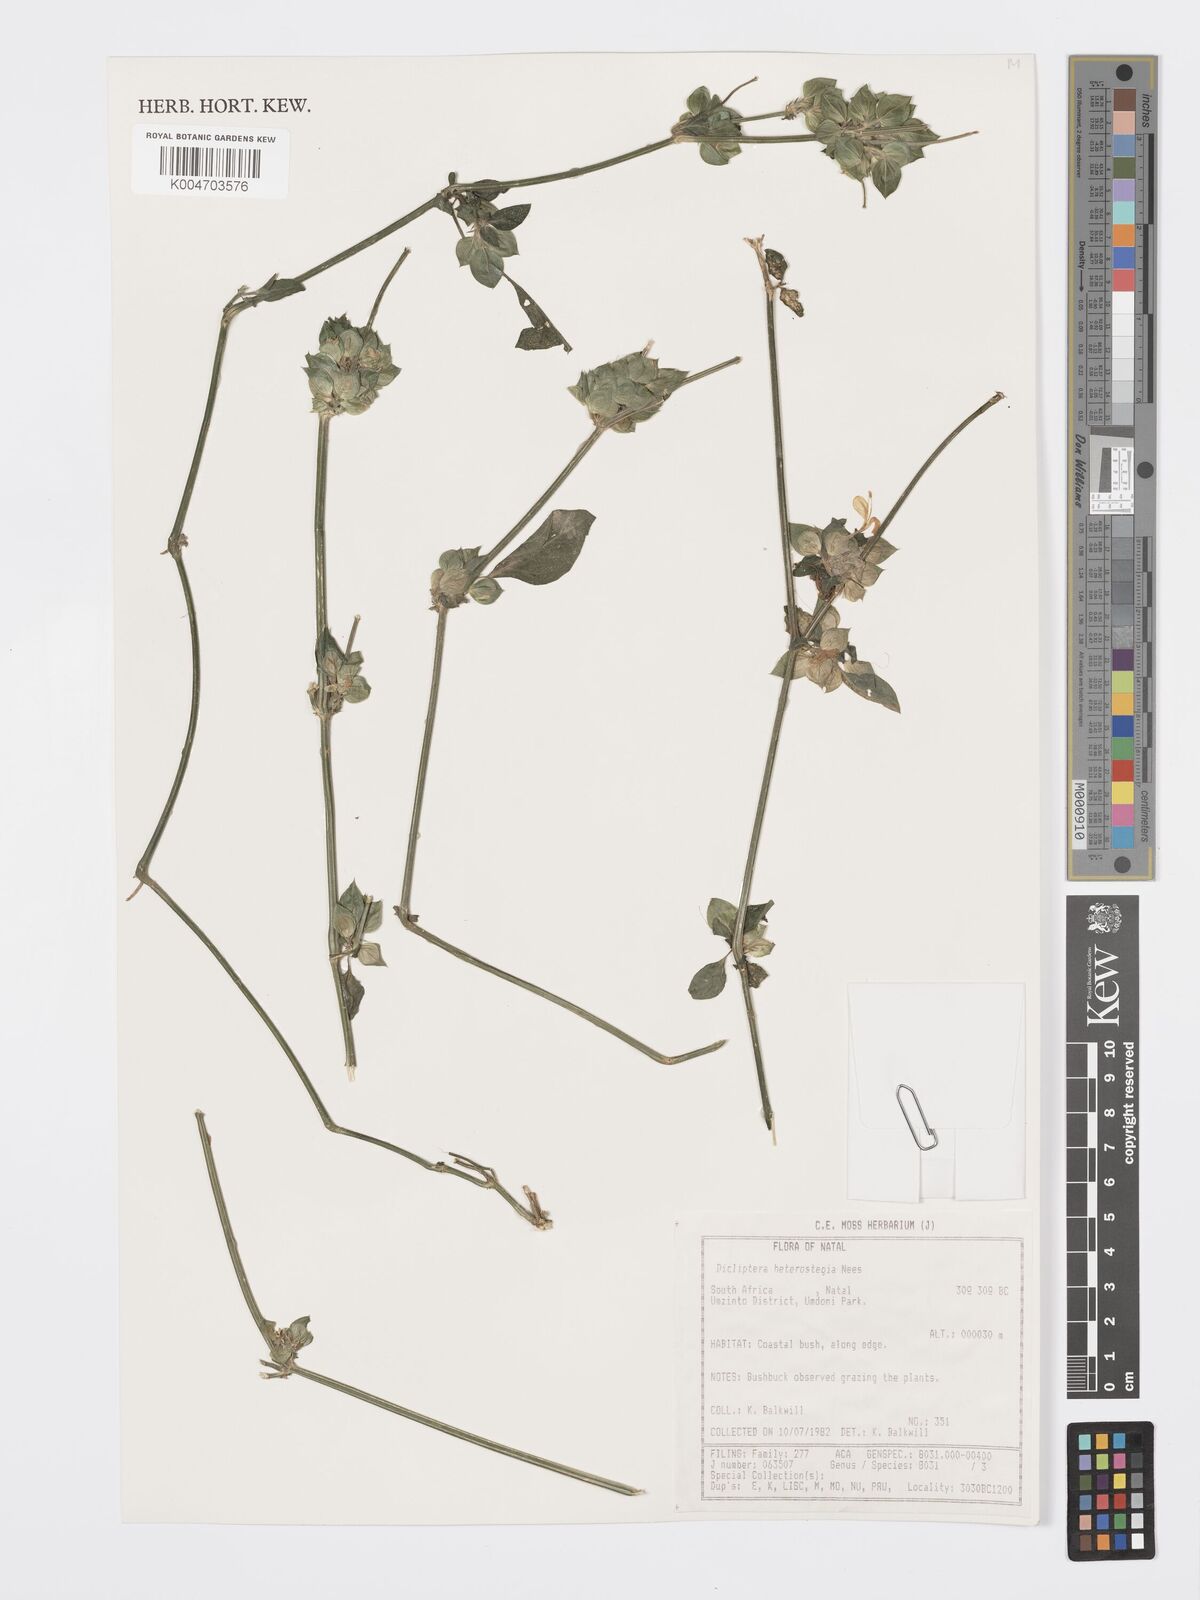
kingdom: Plantae
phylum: Tracheophyta
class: Magnoliopsida
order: Lamiales
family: Acanthaceae
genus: Dicliptera
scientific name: Dicliptera heterostegia
